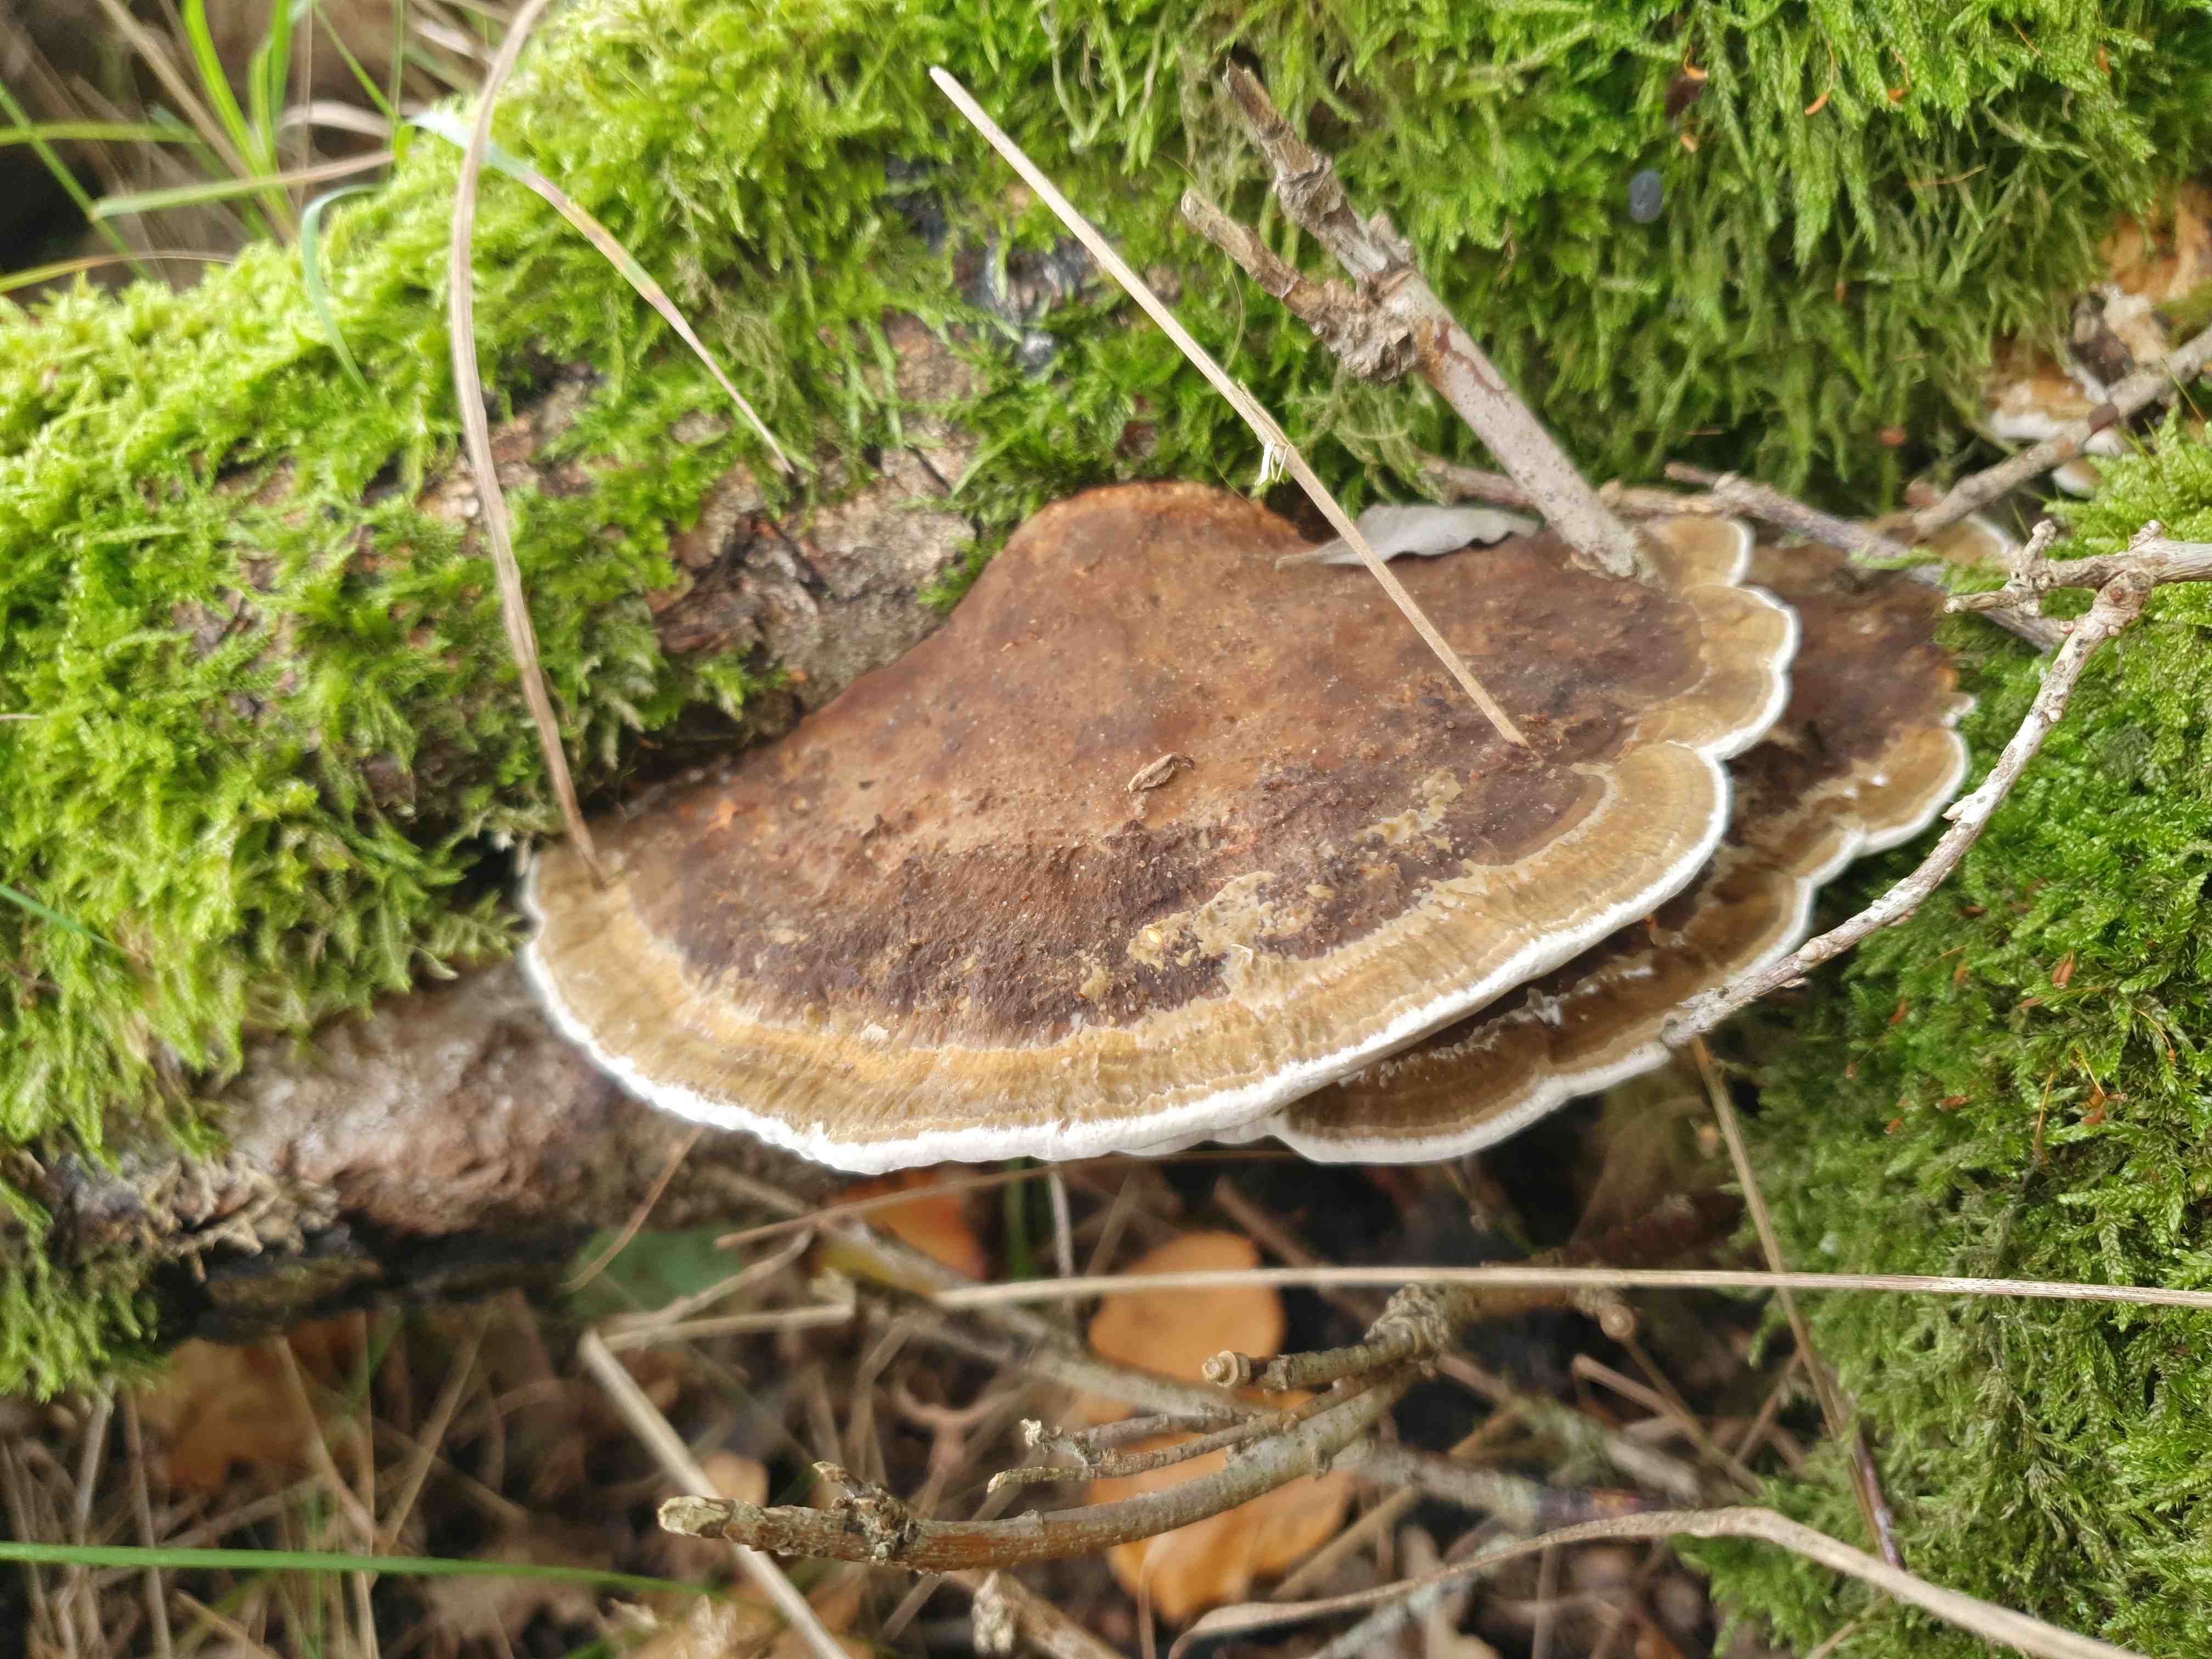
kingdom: Fungi
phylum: Basidiomycota
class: Agaricomycetes
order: Polyporales
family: Polyporaceae
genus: Daedaleopsis
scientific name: Daedaleopsis confragosa
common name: rødmende læderporesvamp
